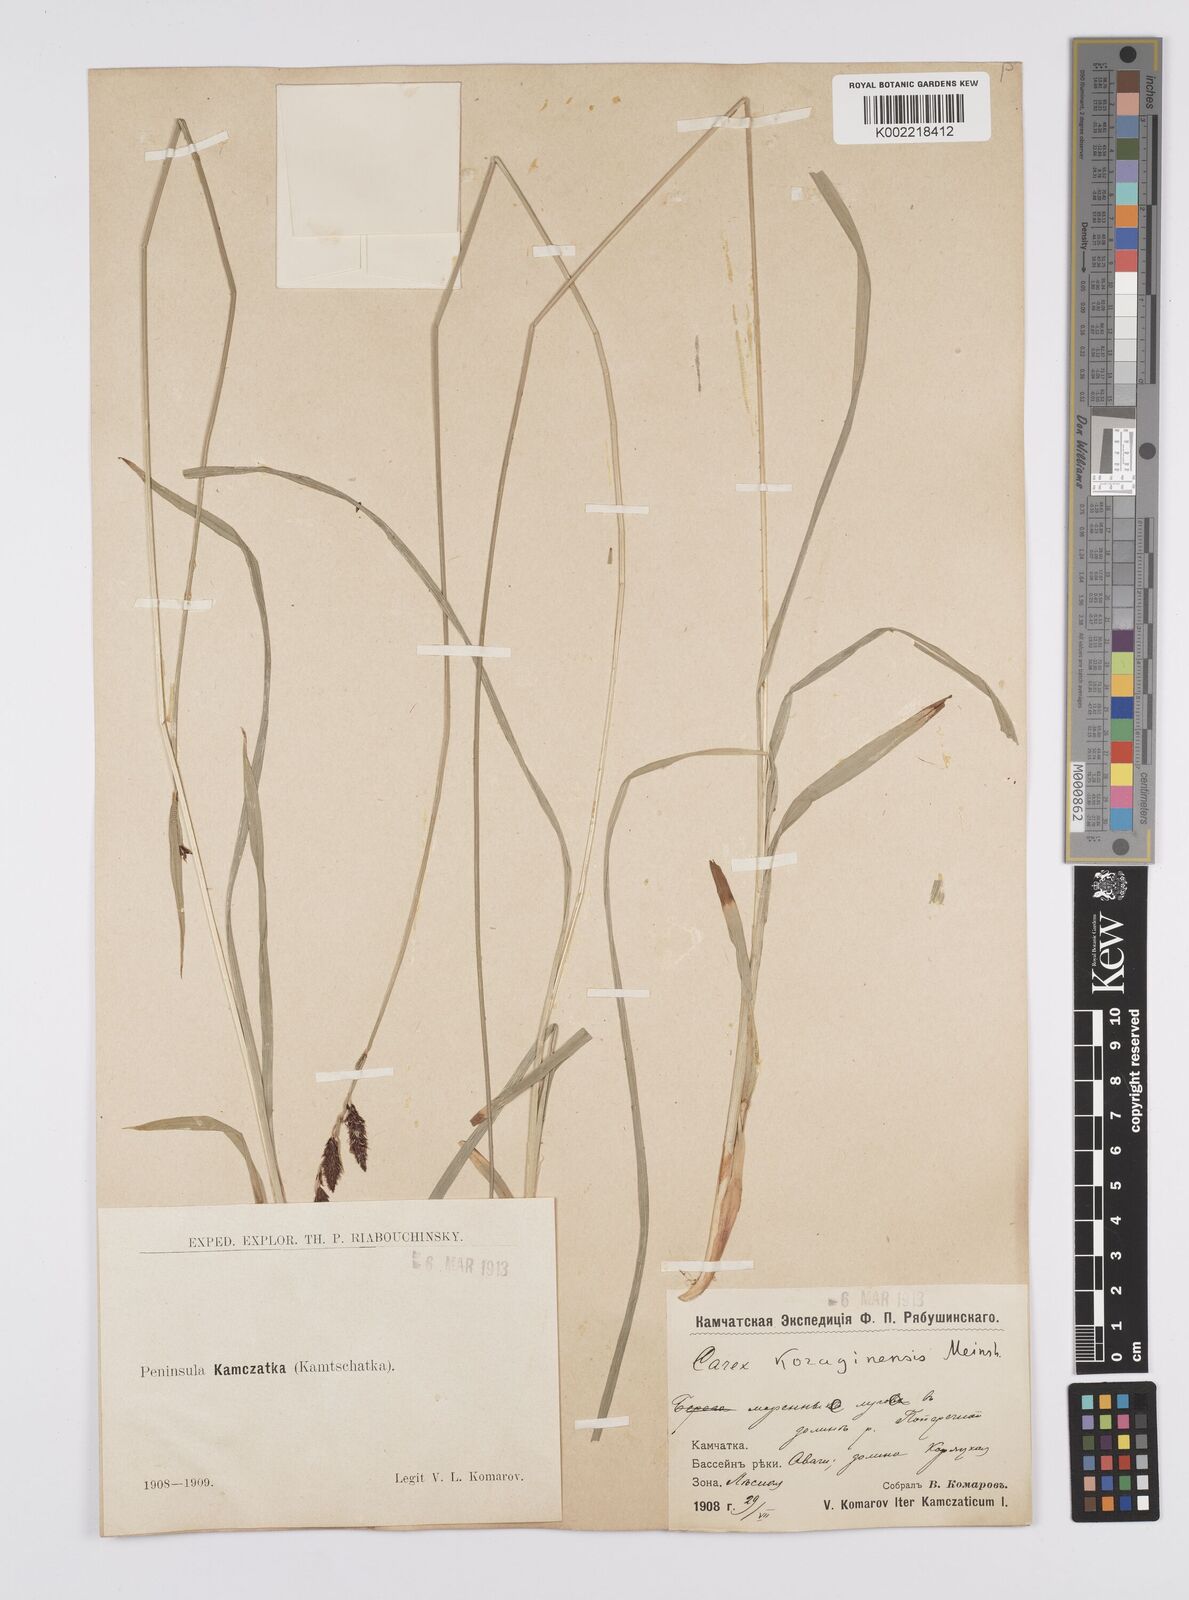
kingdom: Plantae
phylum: Tracheophyta
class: Liliopsida
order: Poales
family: Cyperaceae
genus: Carex
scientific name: Carex scita
